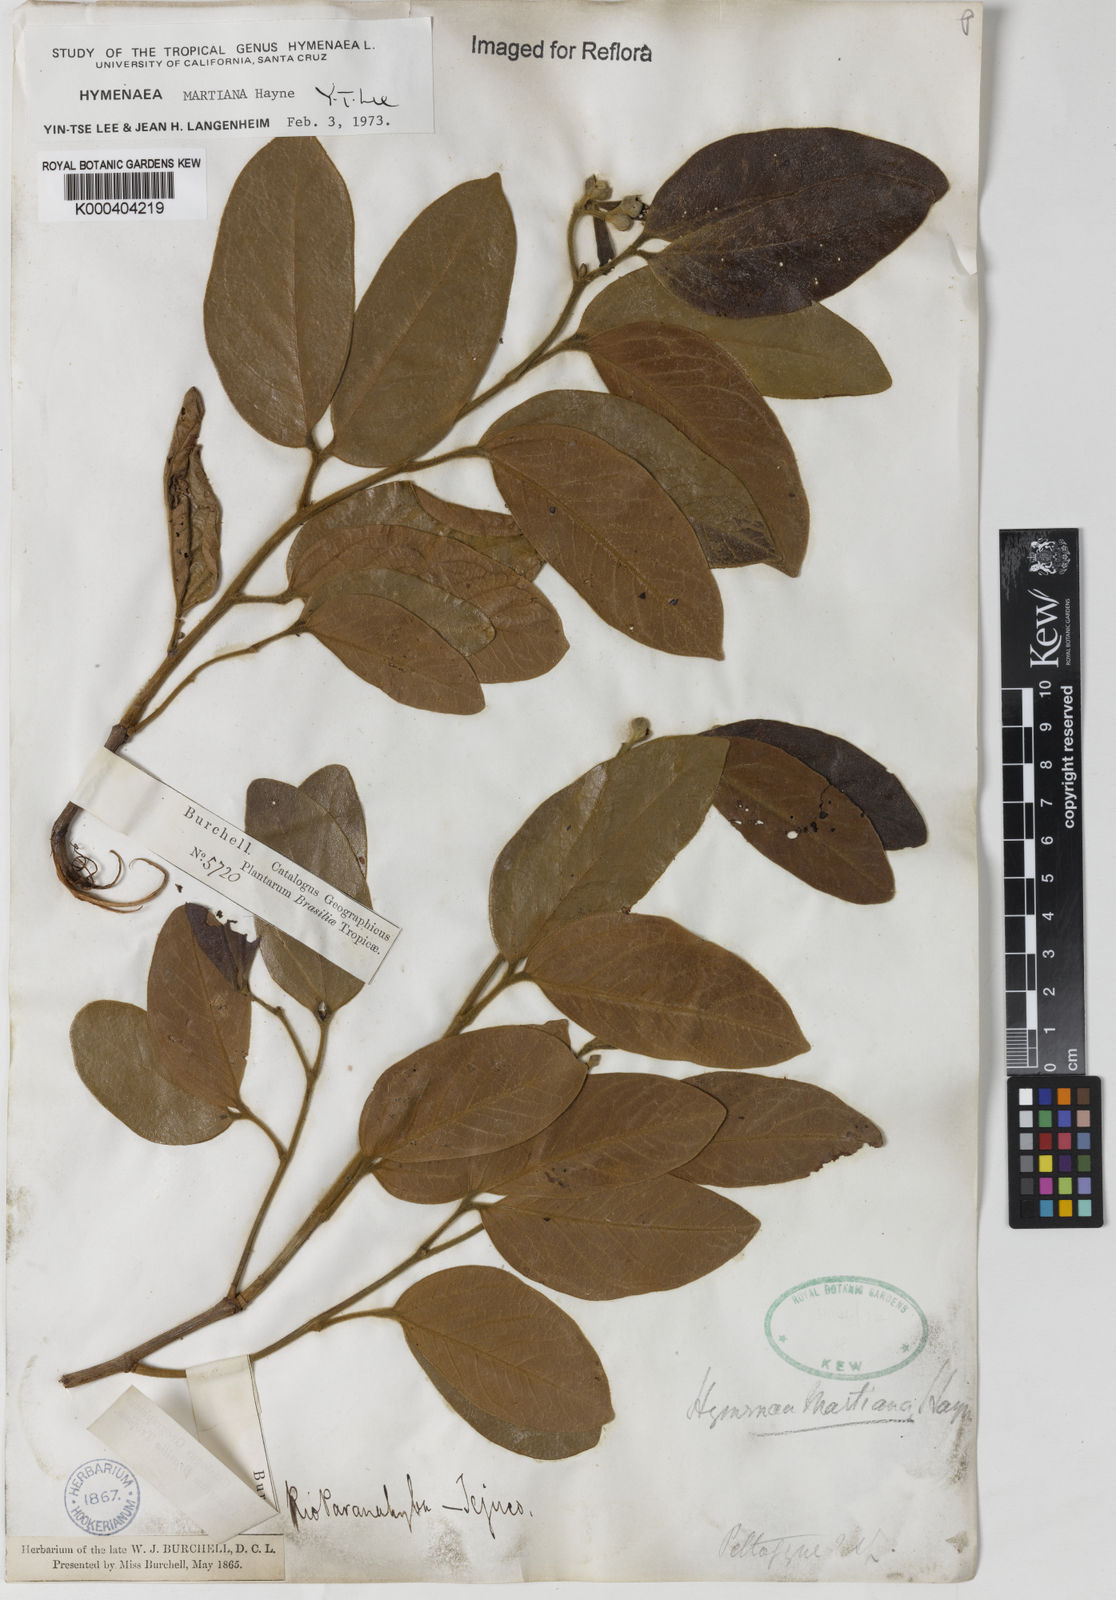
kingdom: Plantae
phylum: Tracheophyta
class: Magnoliopsida
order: Fabales
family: Fabaceae
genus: Hymenaea
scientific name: Hymenaea martiana
